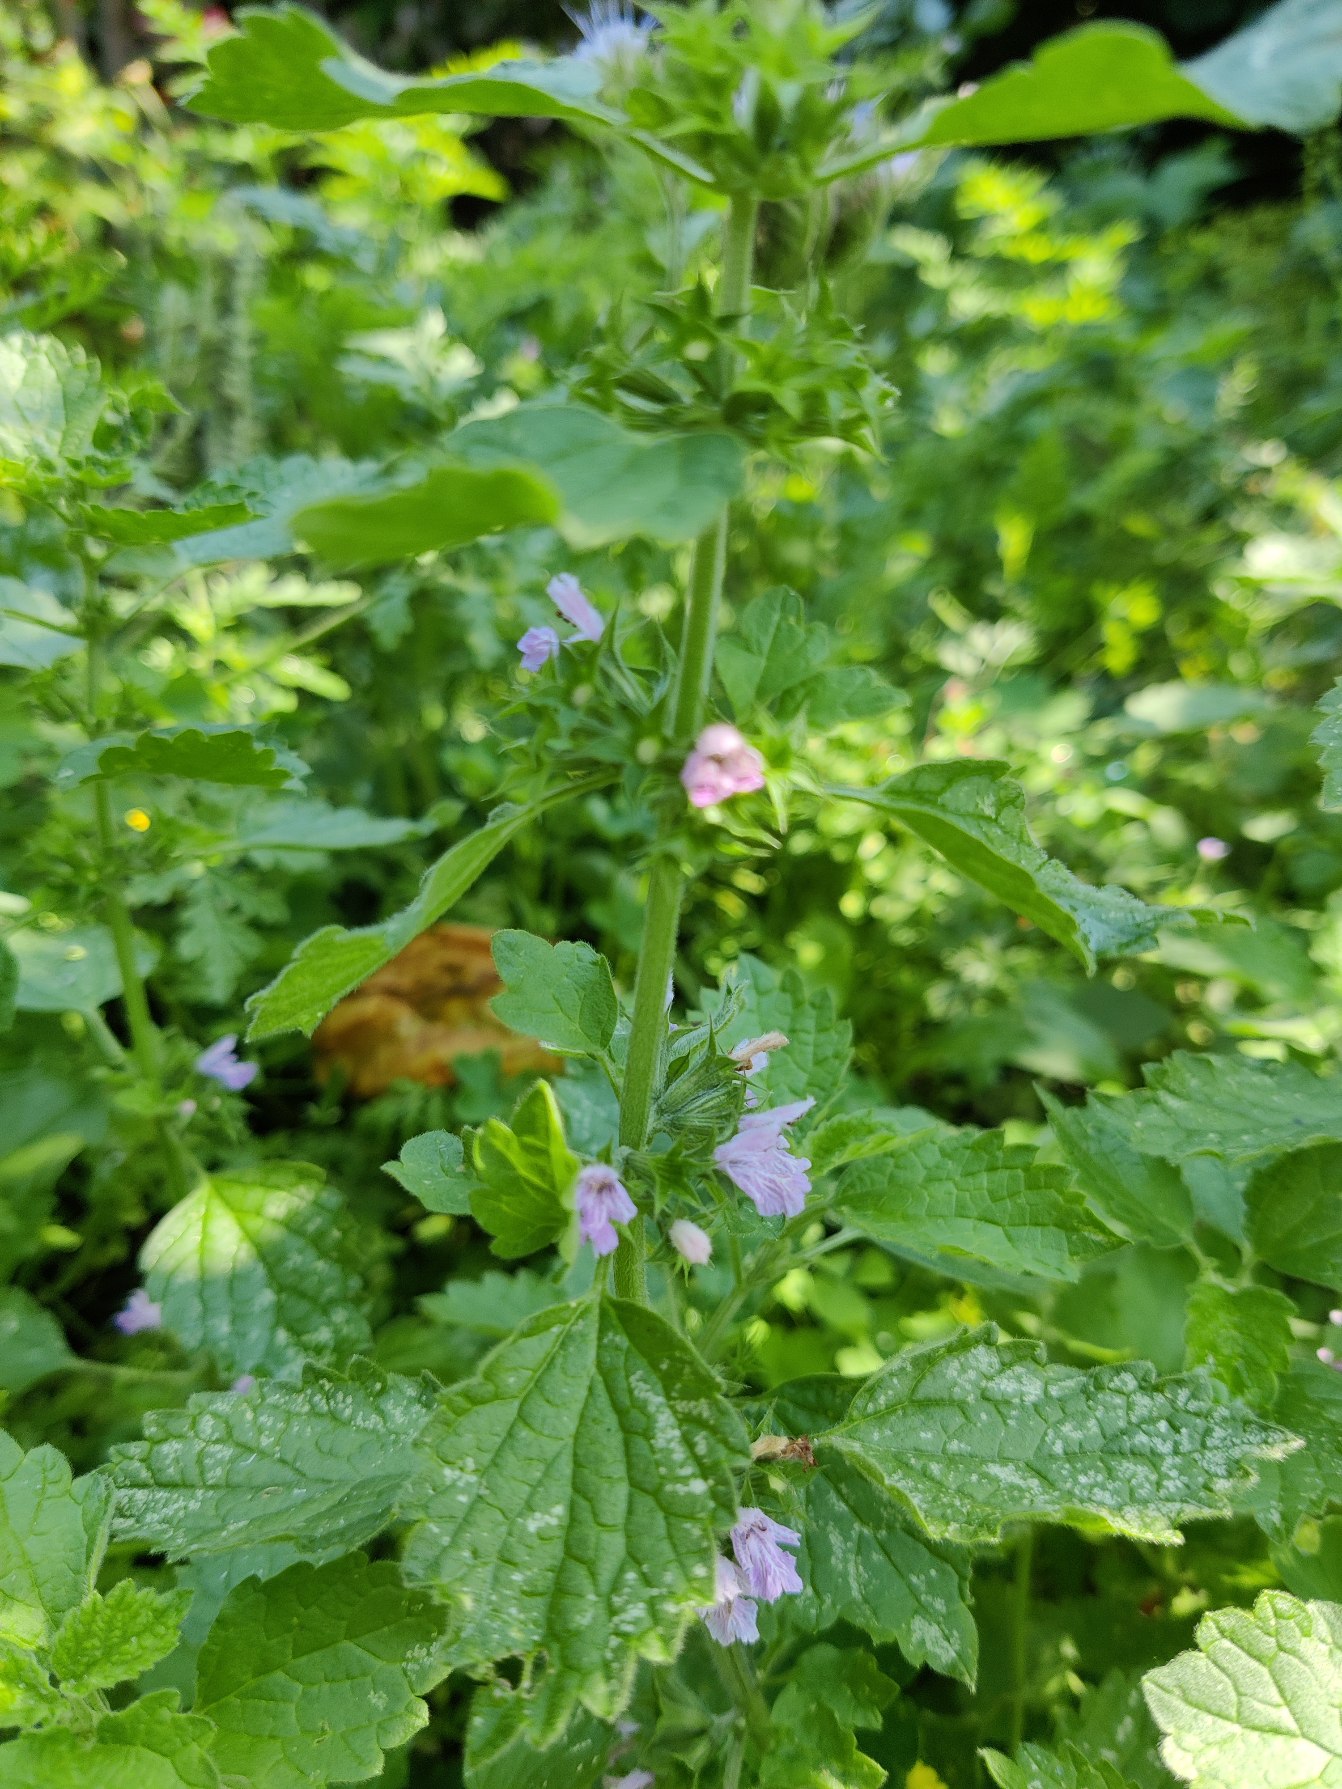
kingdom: Plantae
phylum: Tracheophyta
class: Magnoliopsida
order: Lamiales
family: Lamiaceae
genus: Ballota
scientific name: Ballota nigra
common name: Rød tandbæger
